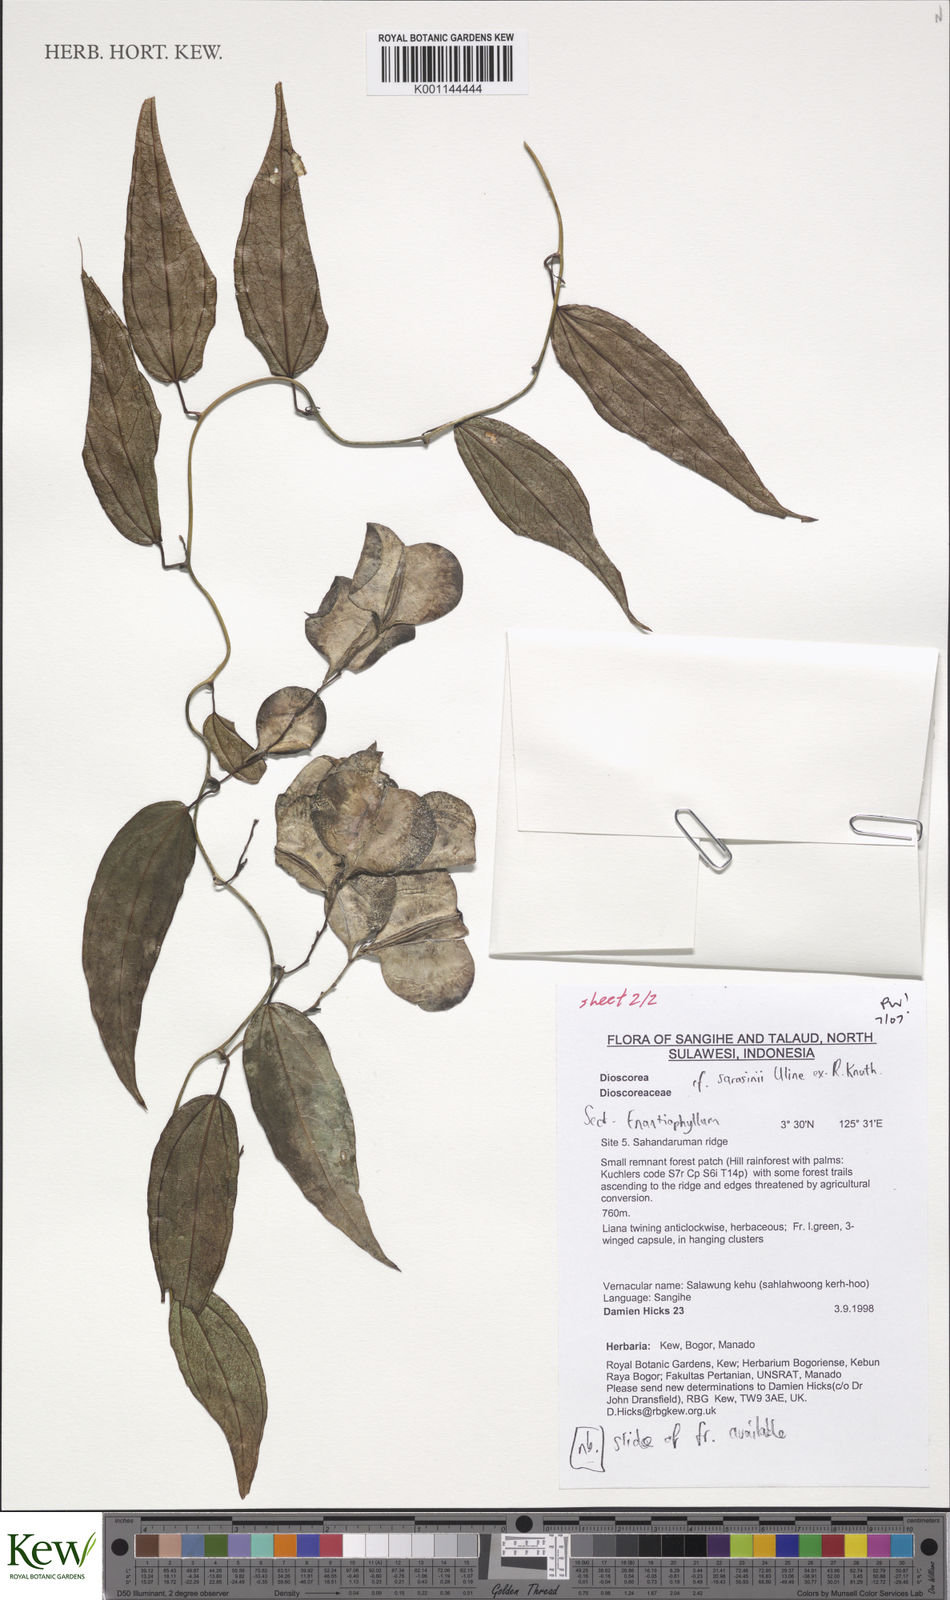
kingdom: Plantae
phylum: Tracheophyta
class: Liliopsida
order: Dioscoreales
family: Dioscoreaceae
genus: Dioscorea
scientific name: Dioscorea sarasinii
